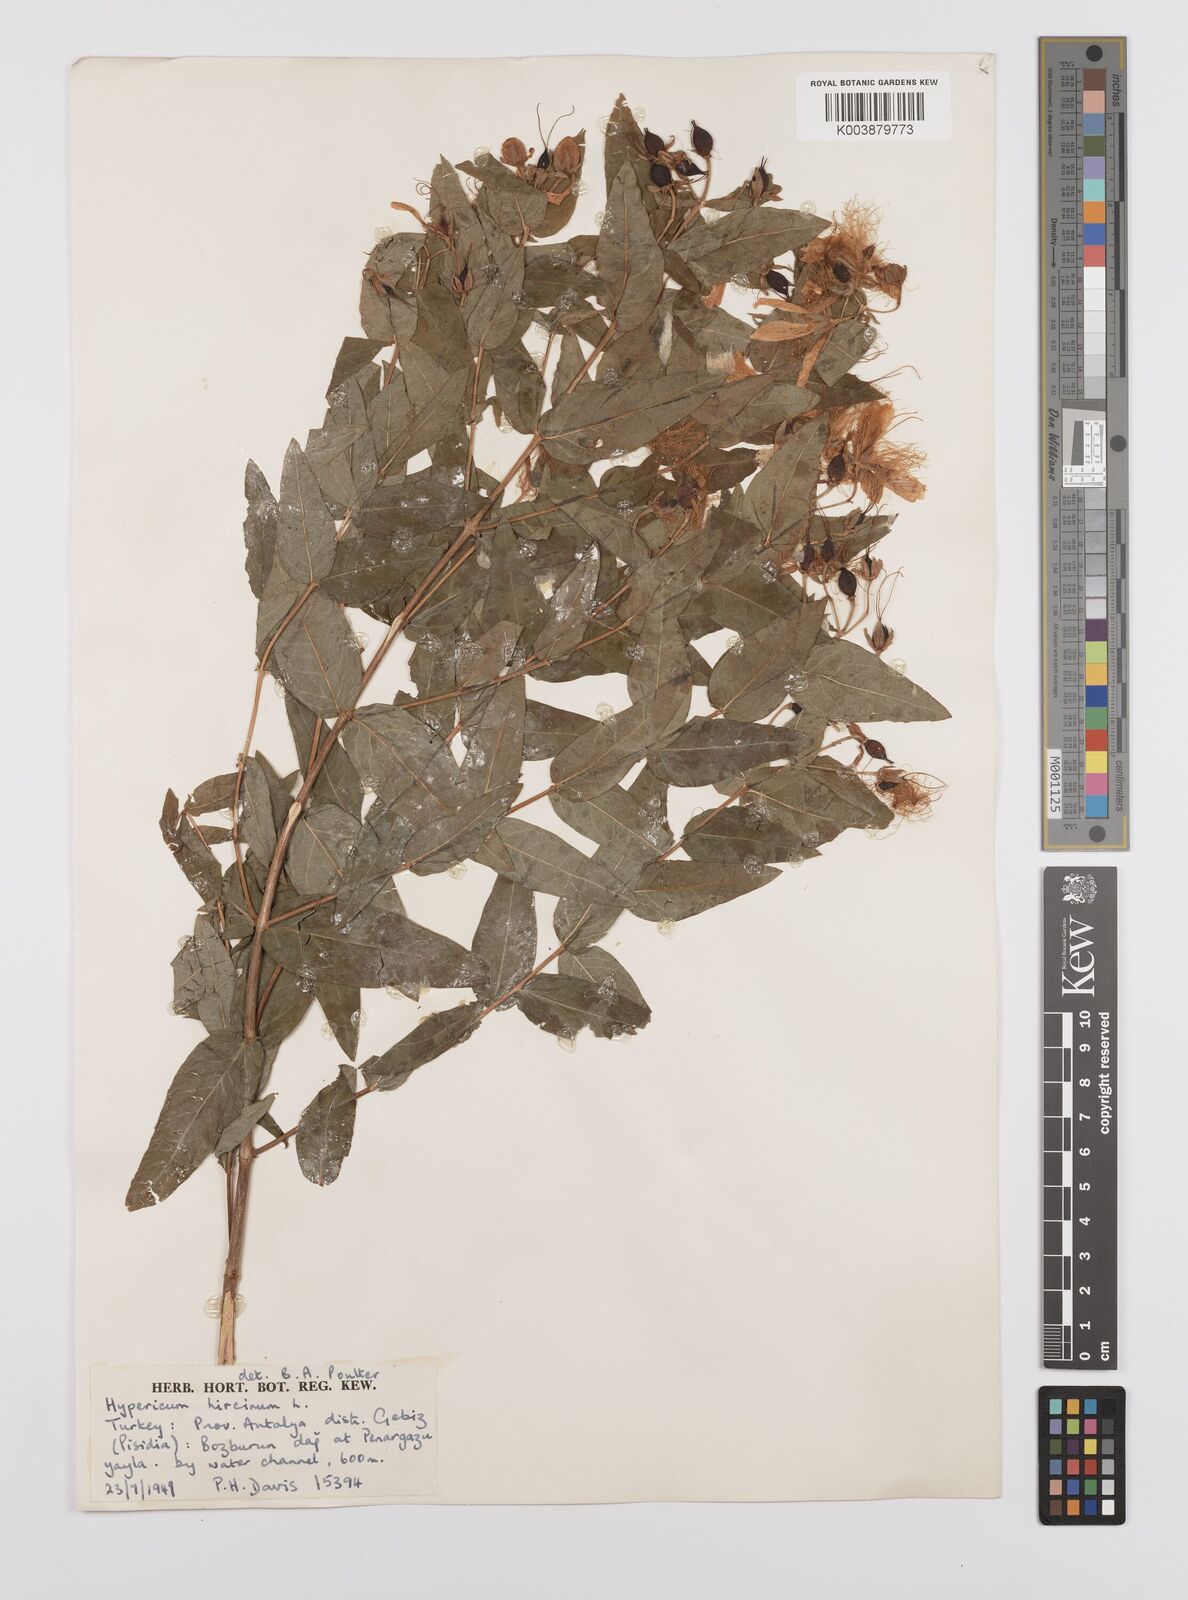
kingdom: Plantae
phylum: Tracheophyta
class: Magnoliopsida
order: Malpighiales
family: Hypericaceae
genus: Hypericum
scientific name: Hypericum hircinum
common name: Stinking tutsan
